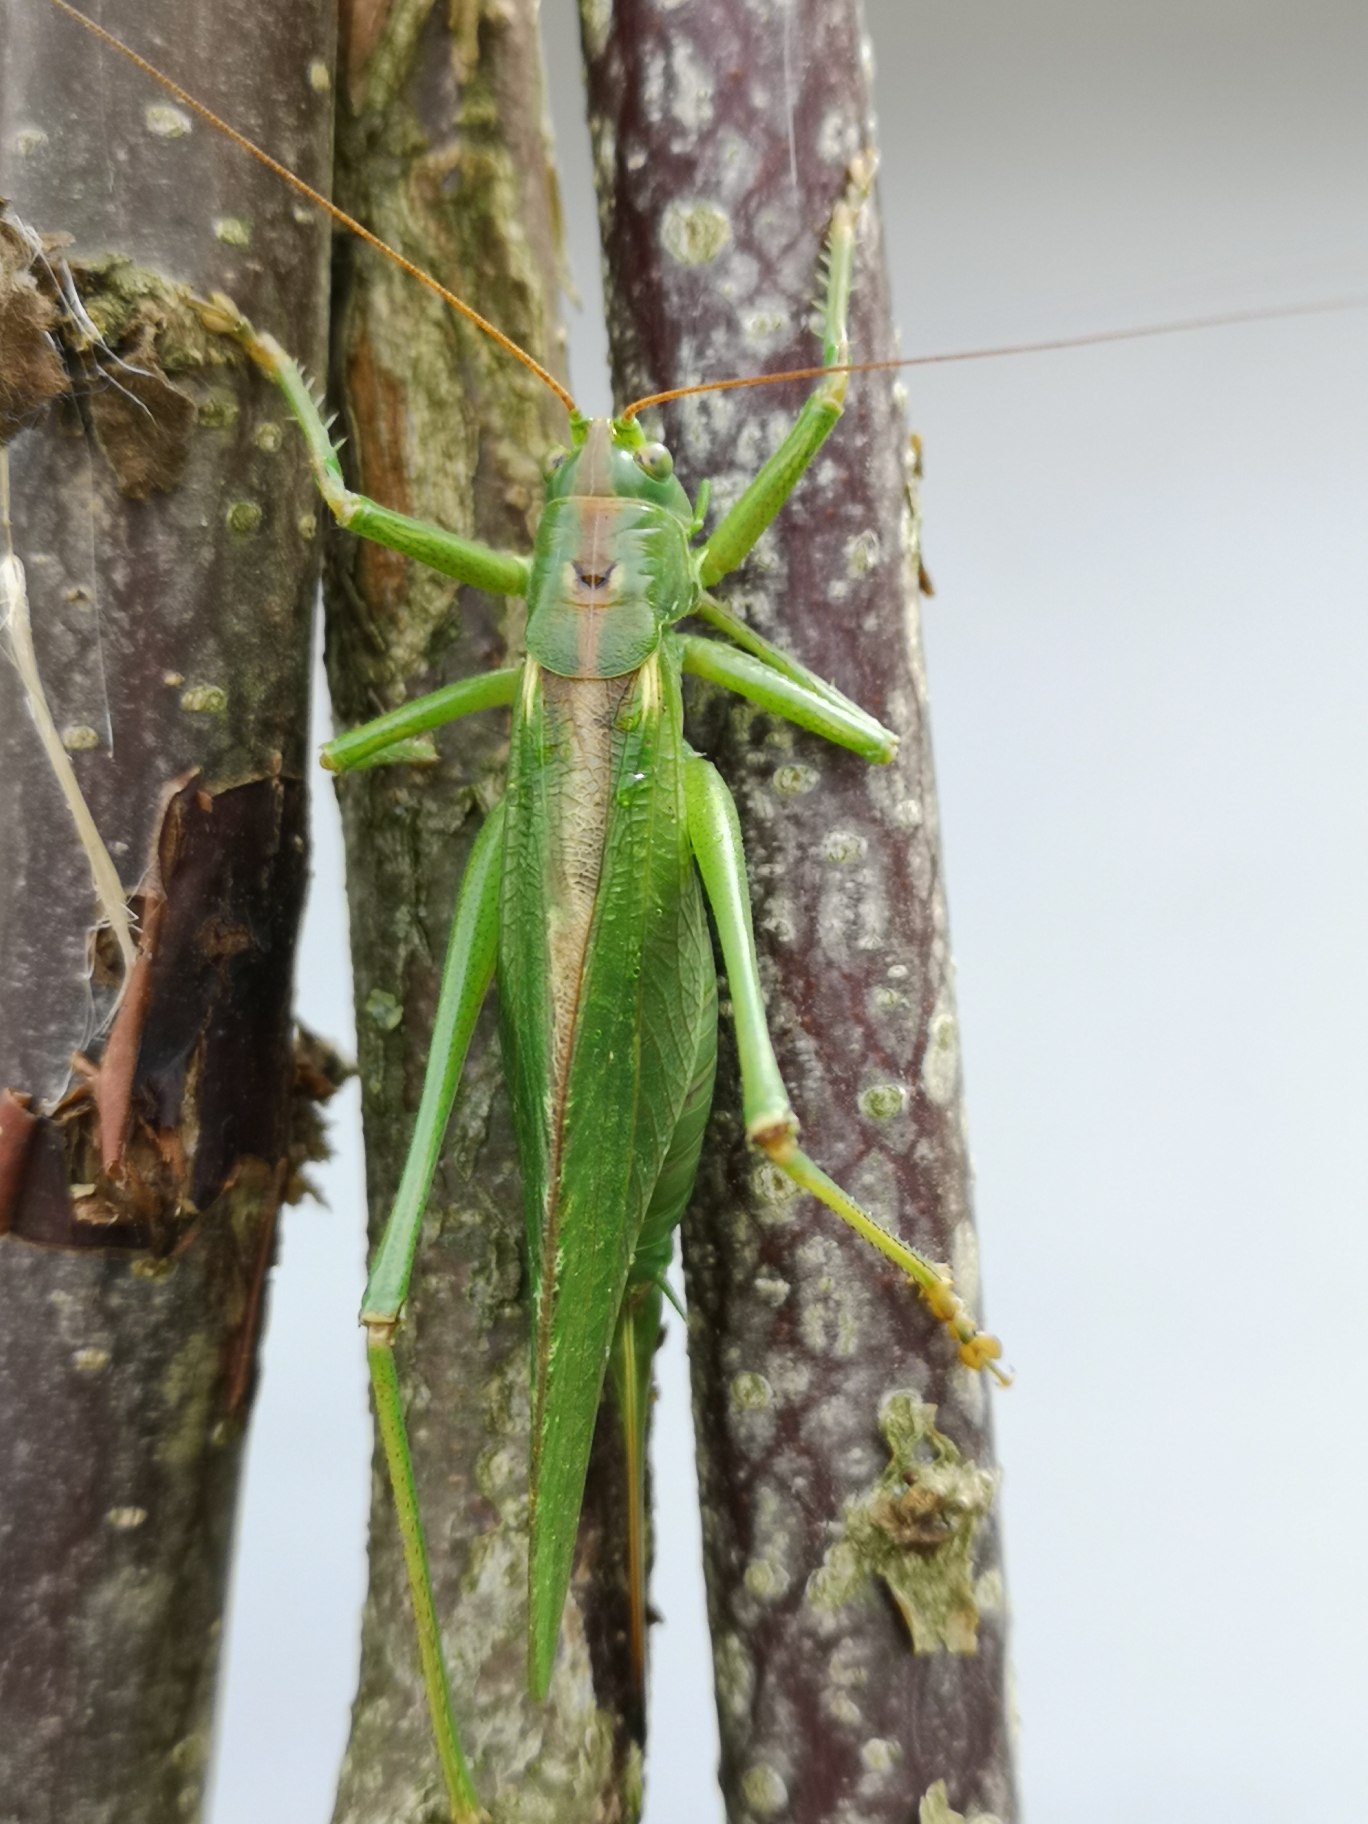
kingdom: Animalia
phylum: Arthropoda
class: Insecta
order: Orthoptera
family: Tettigoniidae
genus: Tettigonia
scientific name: Tettigonia viridissima
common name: Stor grøn løvgræshoppe
